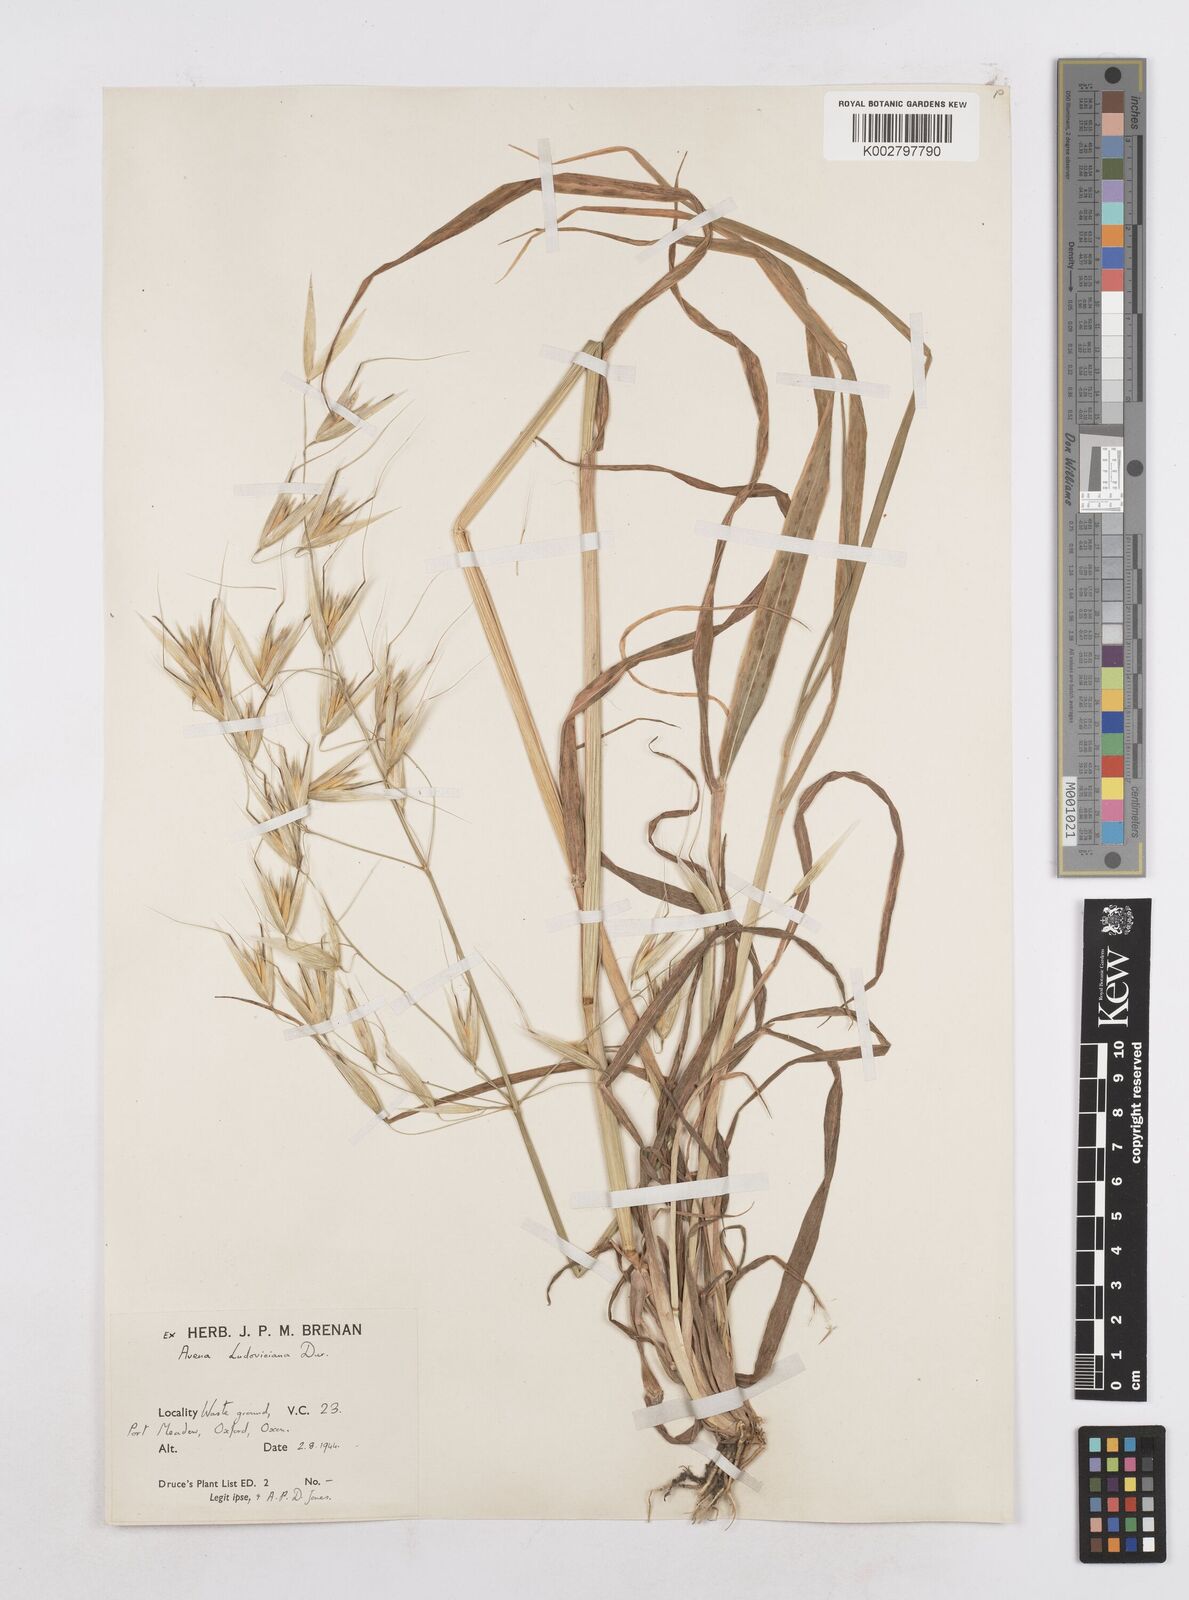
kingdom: Plantae
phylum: Tracheophyta
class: Liliopsida
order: Poales
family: Poaceae
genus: Avena
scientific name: Avena sterilis
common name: Animated oat
